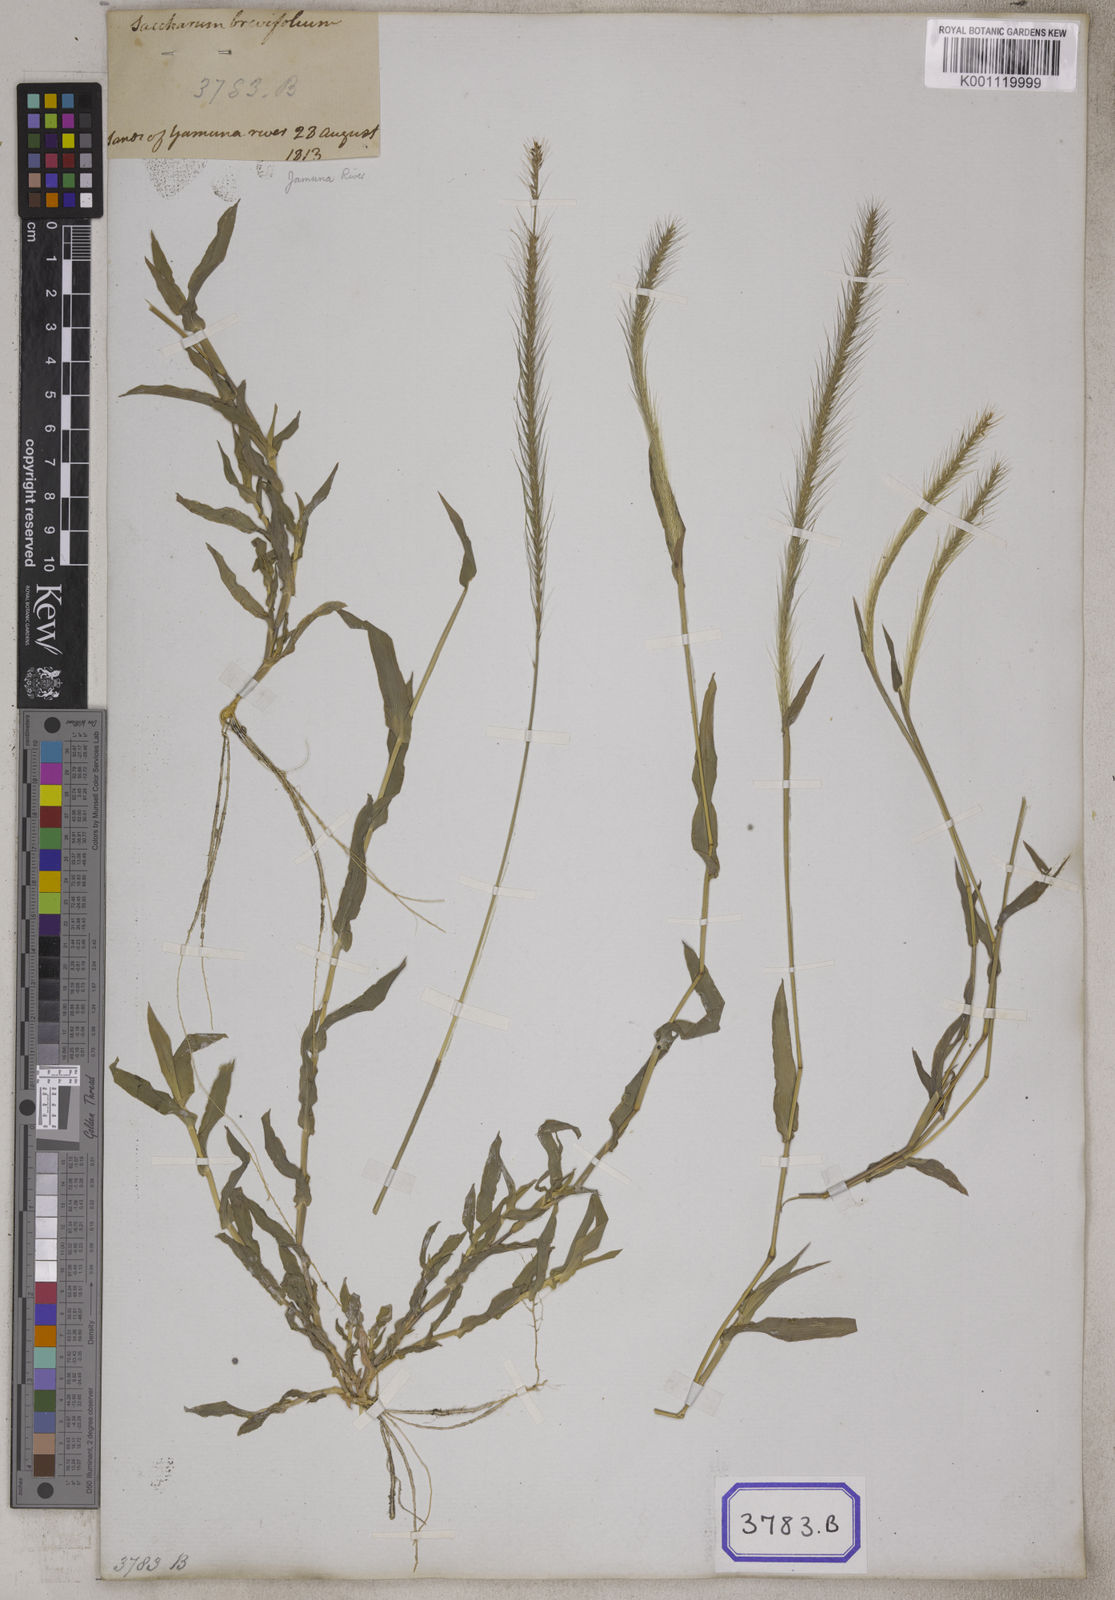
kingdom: Plantae
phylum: Tracheophyta
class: Liliopsida
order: Poales
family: Poaceae
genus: Perotis
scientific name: Perotis indica
